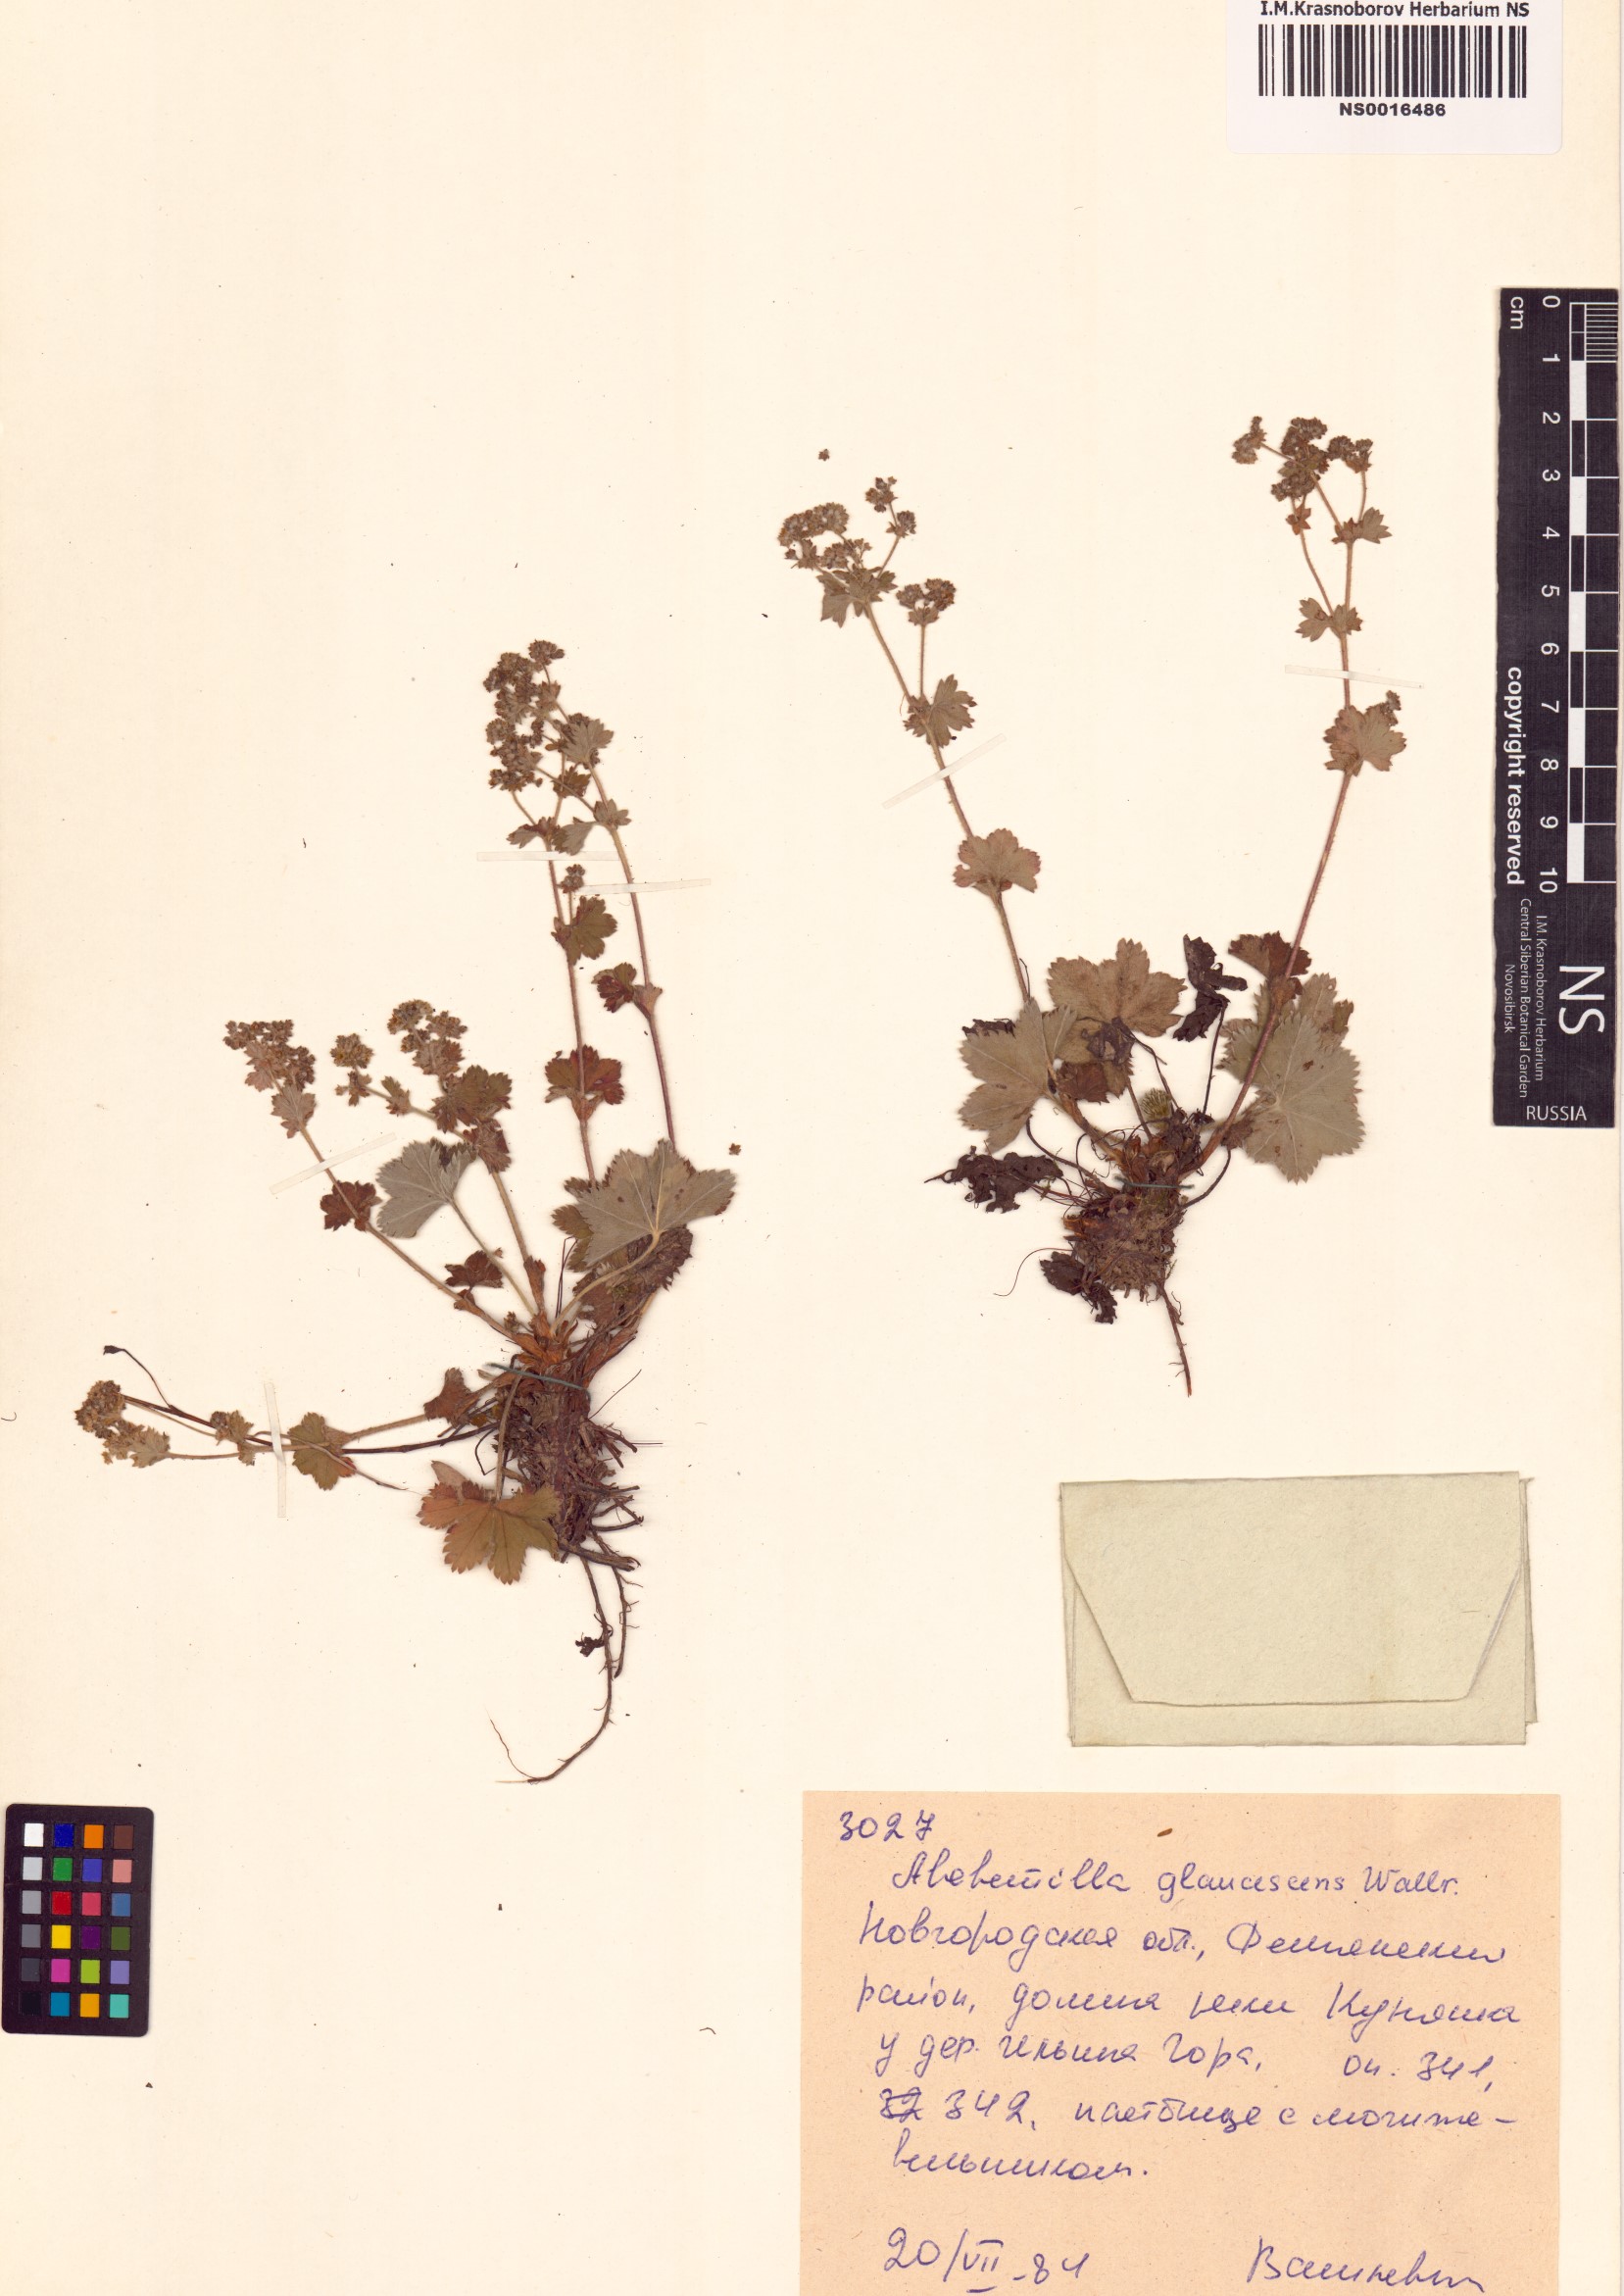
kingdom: Plantae
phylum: Tracheophyta
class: Magnoliopsida
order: Rosales
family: Rosaceae
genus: Alchemilla
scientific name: Alchemilla glaucescens
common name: Silky lady's mantle
